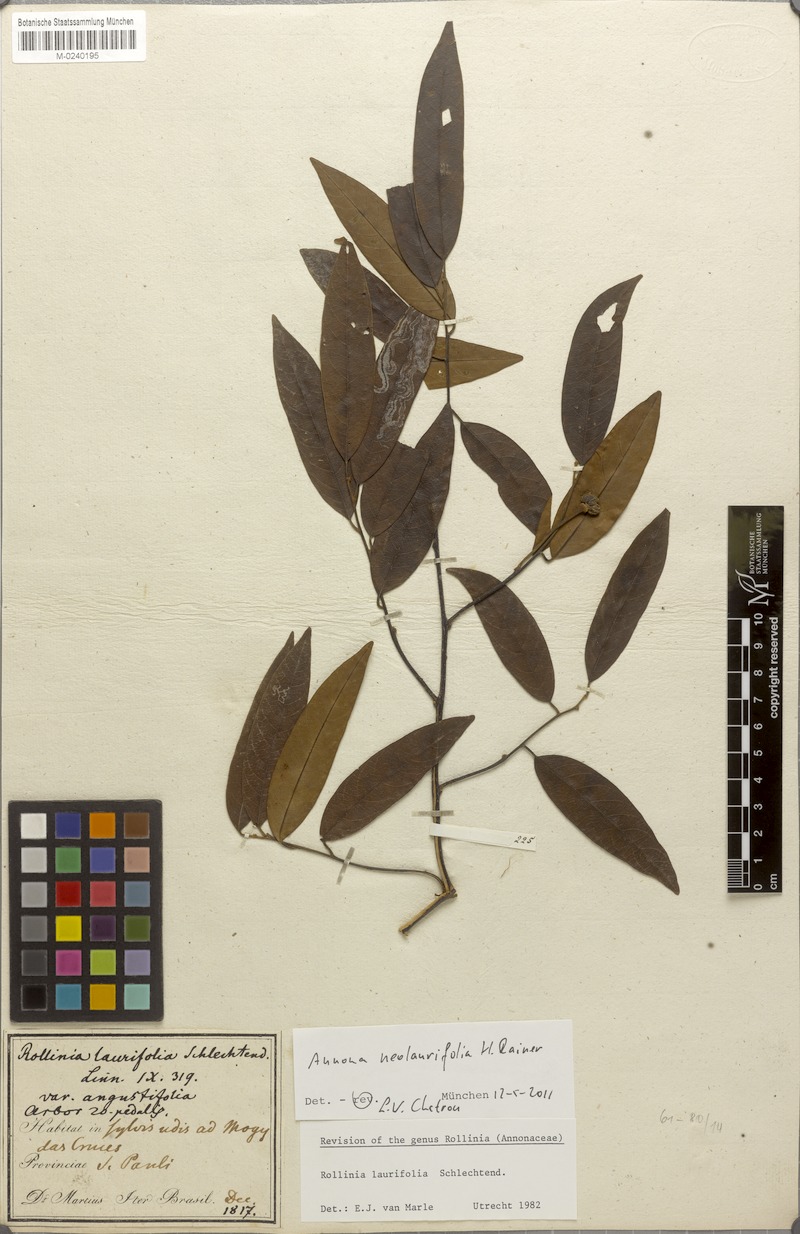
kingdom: Plantae
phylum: Tracheophyta
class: Magnoliopsida
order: Magnoliales
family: Annonaceae
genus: Annona
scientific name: Annona neolaurifolia
